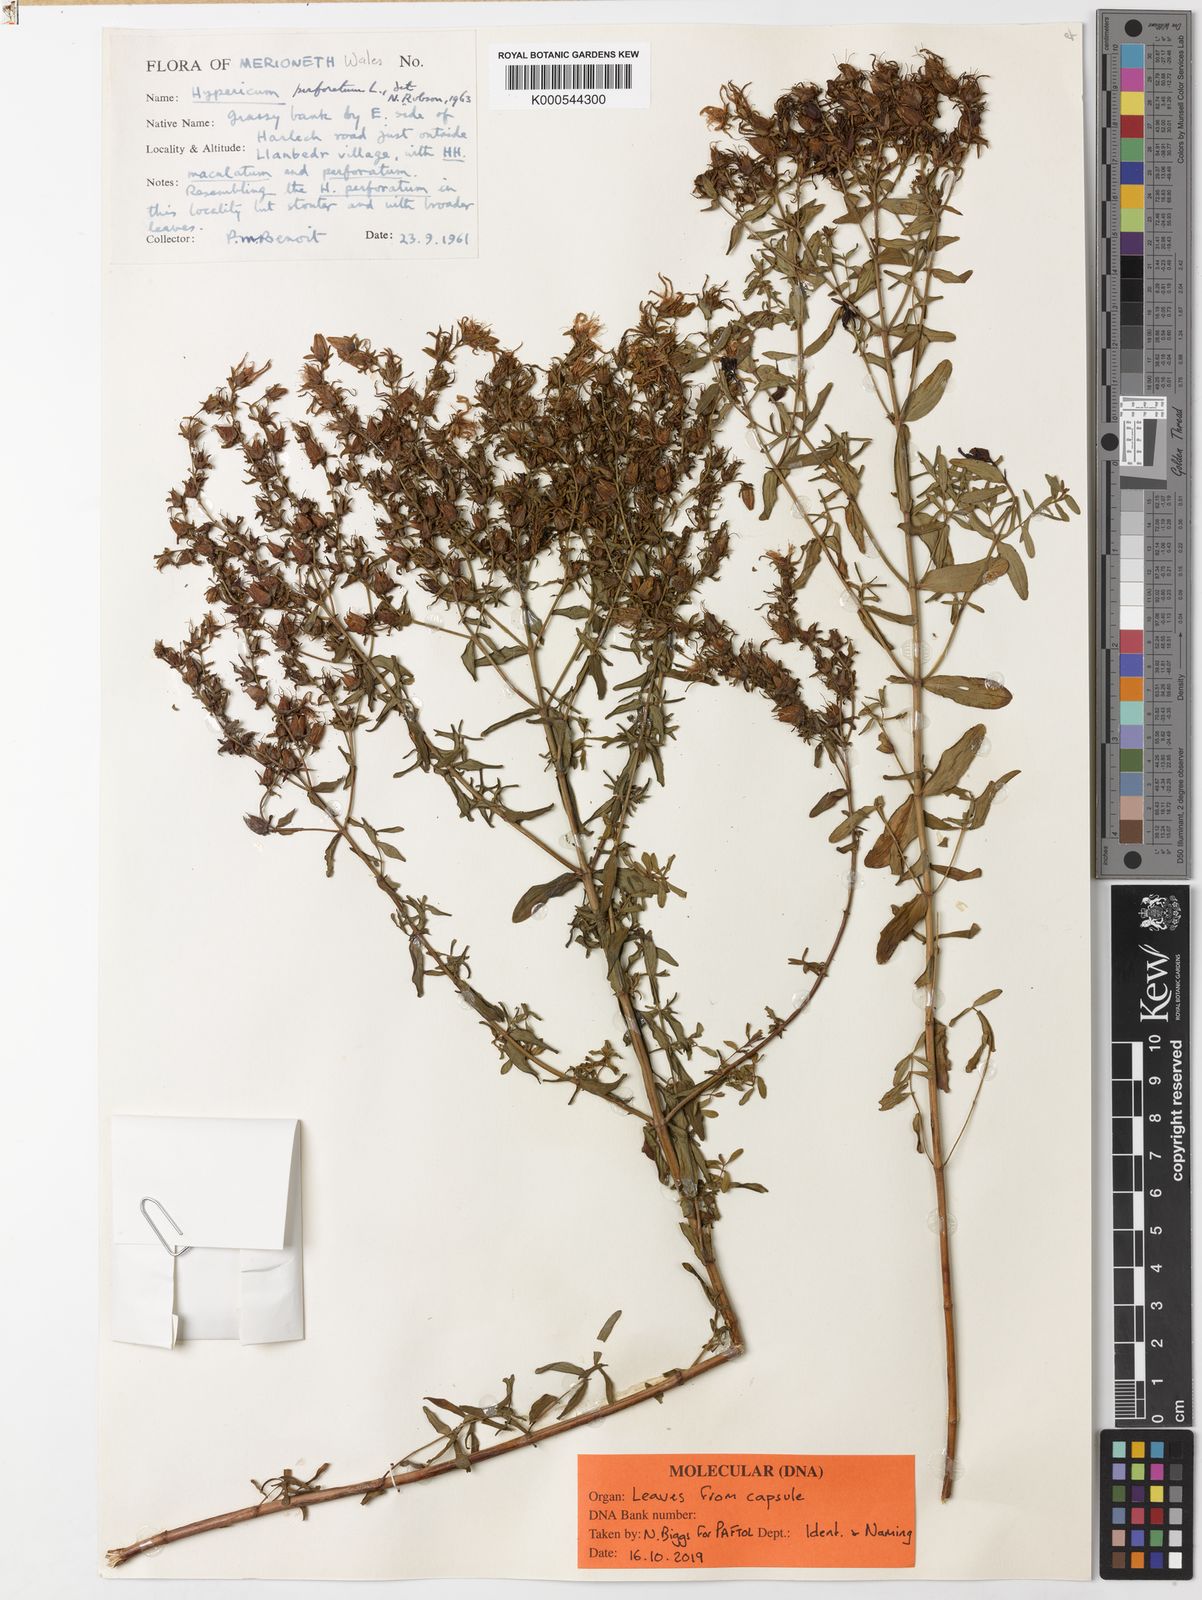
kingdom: Plantae
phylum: Tracheophyta
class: Magnoliopsida
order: Malpighiales
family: Hypericaceae
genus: Hypericum
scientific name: Hypericum perforatum
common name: Common st. johnswort
